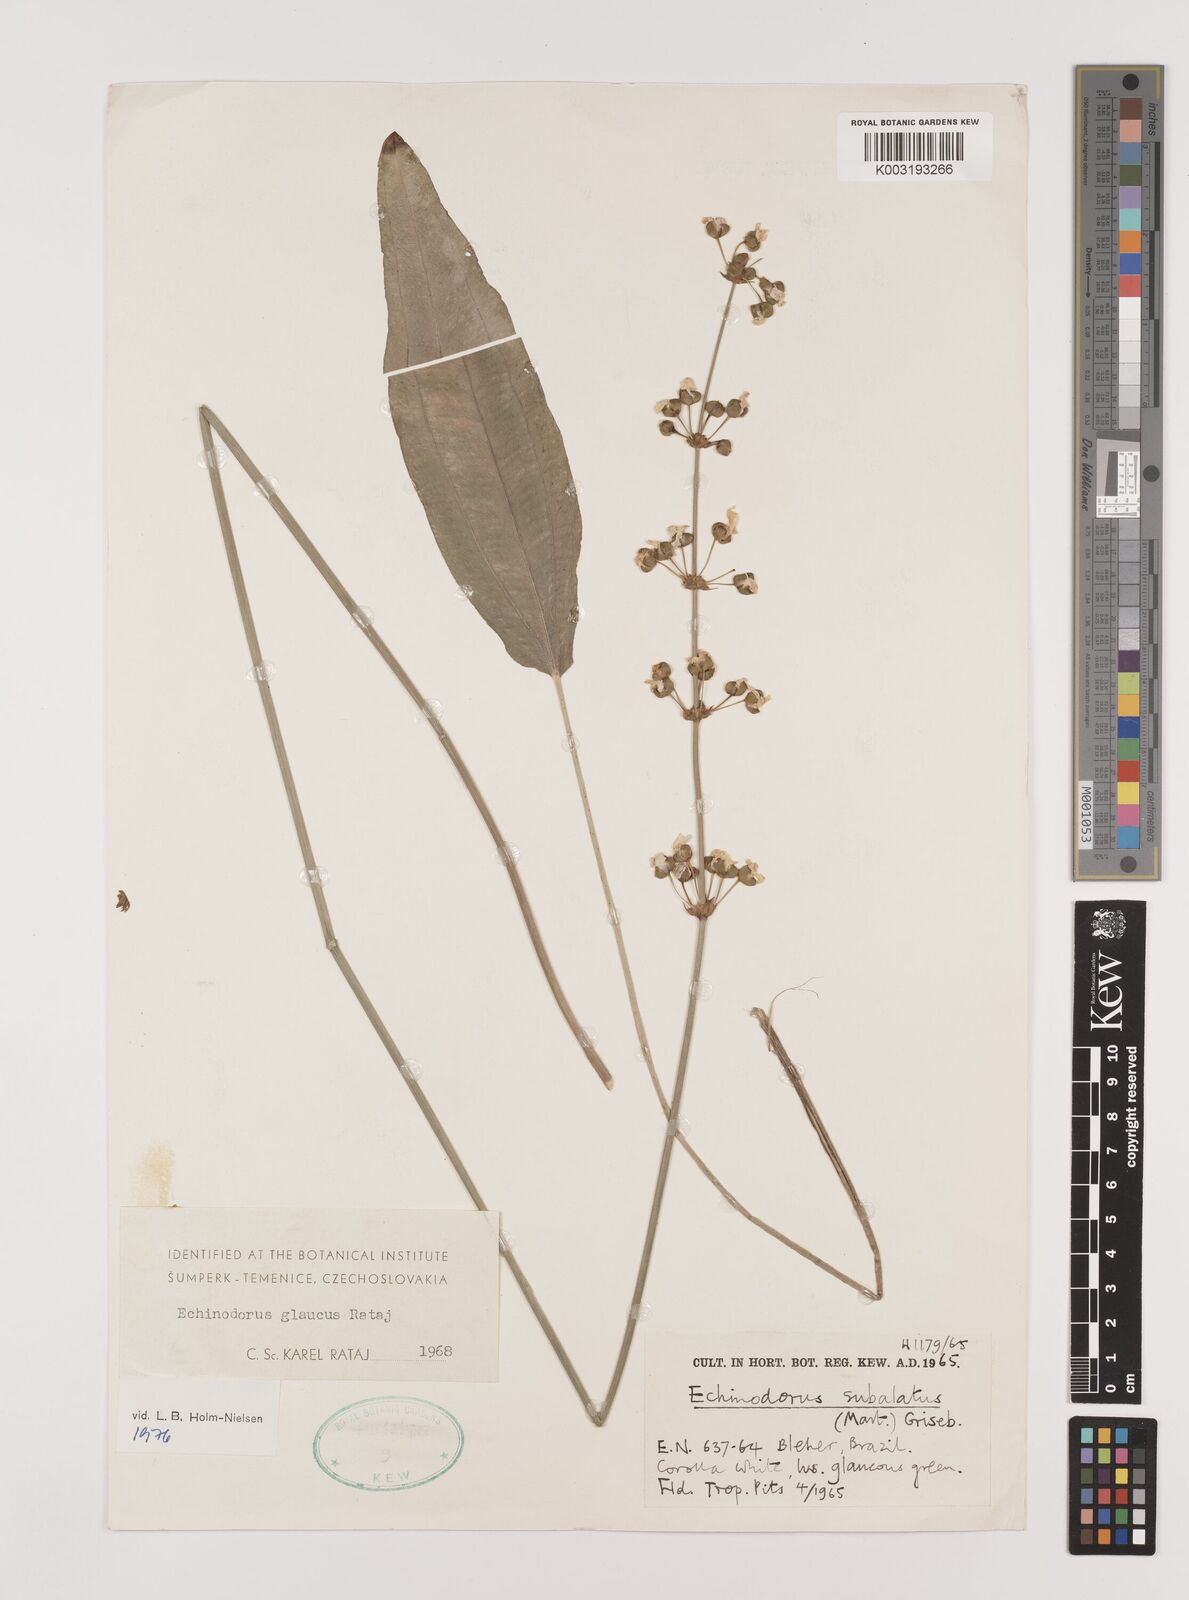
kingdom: Plantae
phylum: Tracheophyta
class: Liliopsida
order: Alismatales
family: Alismataceae
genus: Aquarius
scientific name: Aquarius glaucus
